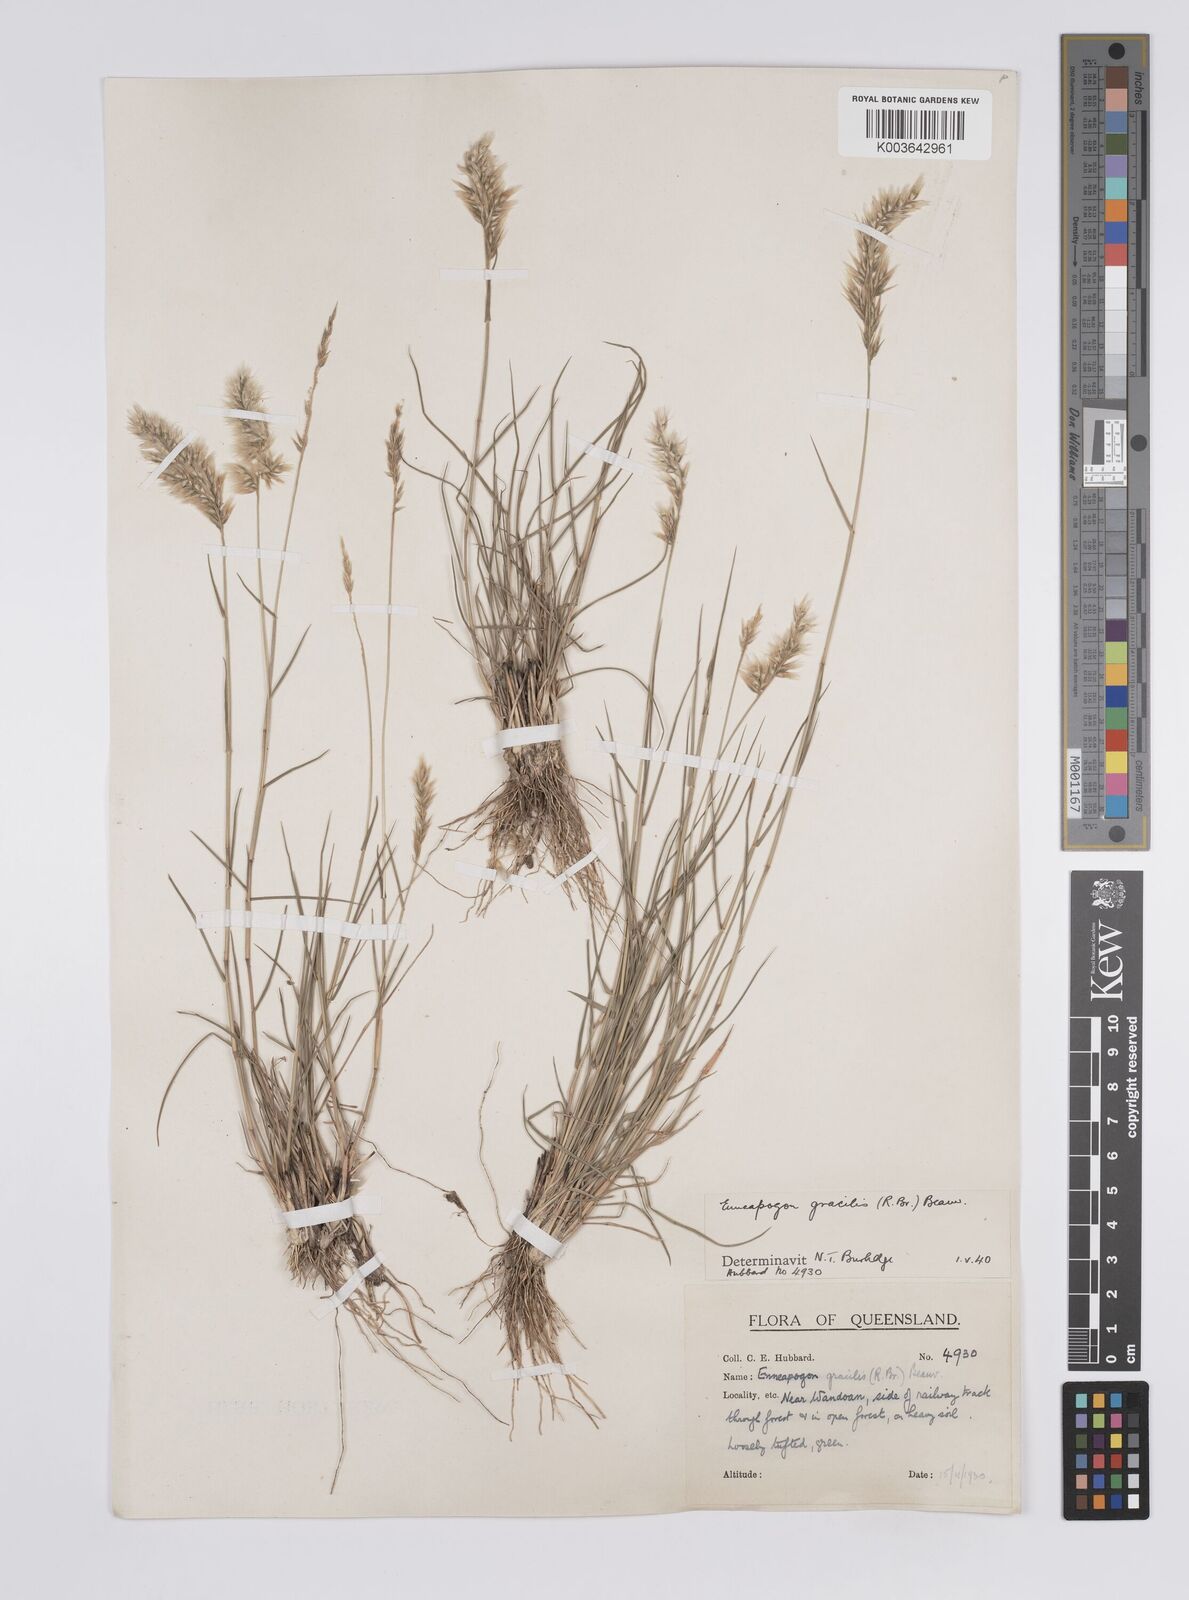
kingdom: Plantae
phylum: Tracheophyta
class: Liliopsida
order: Poales
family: Poaceae
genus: Enneapogon
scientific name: Enneapogon gracilis
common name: Slender bottle-washers
